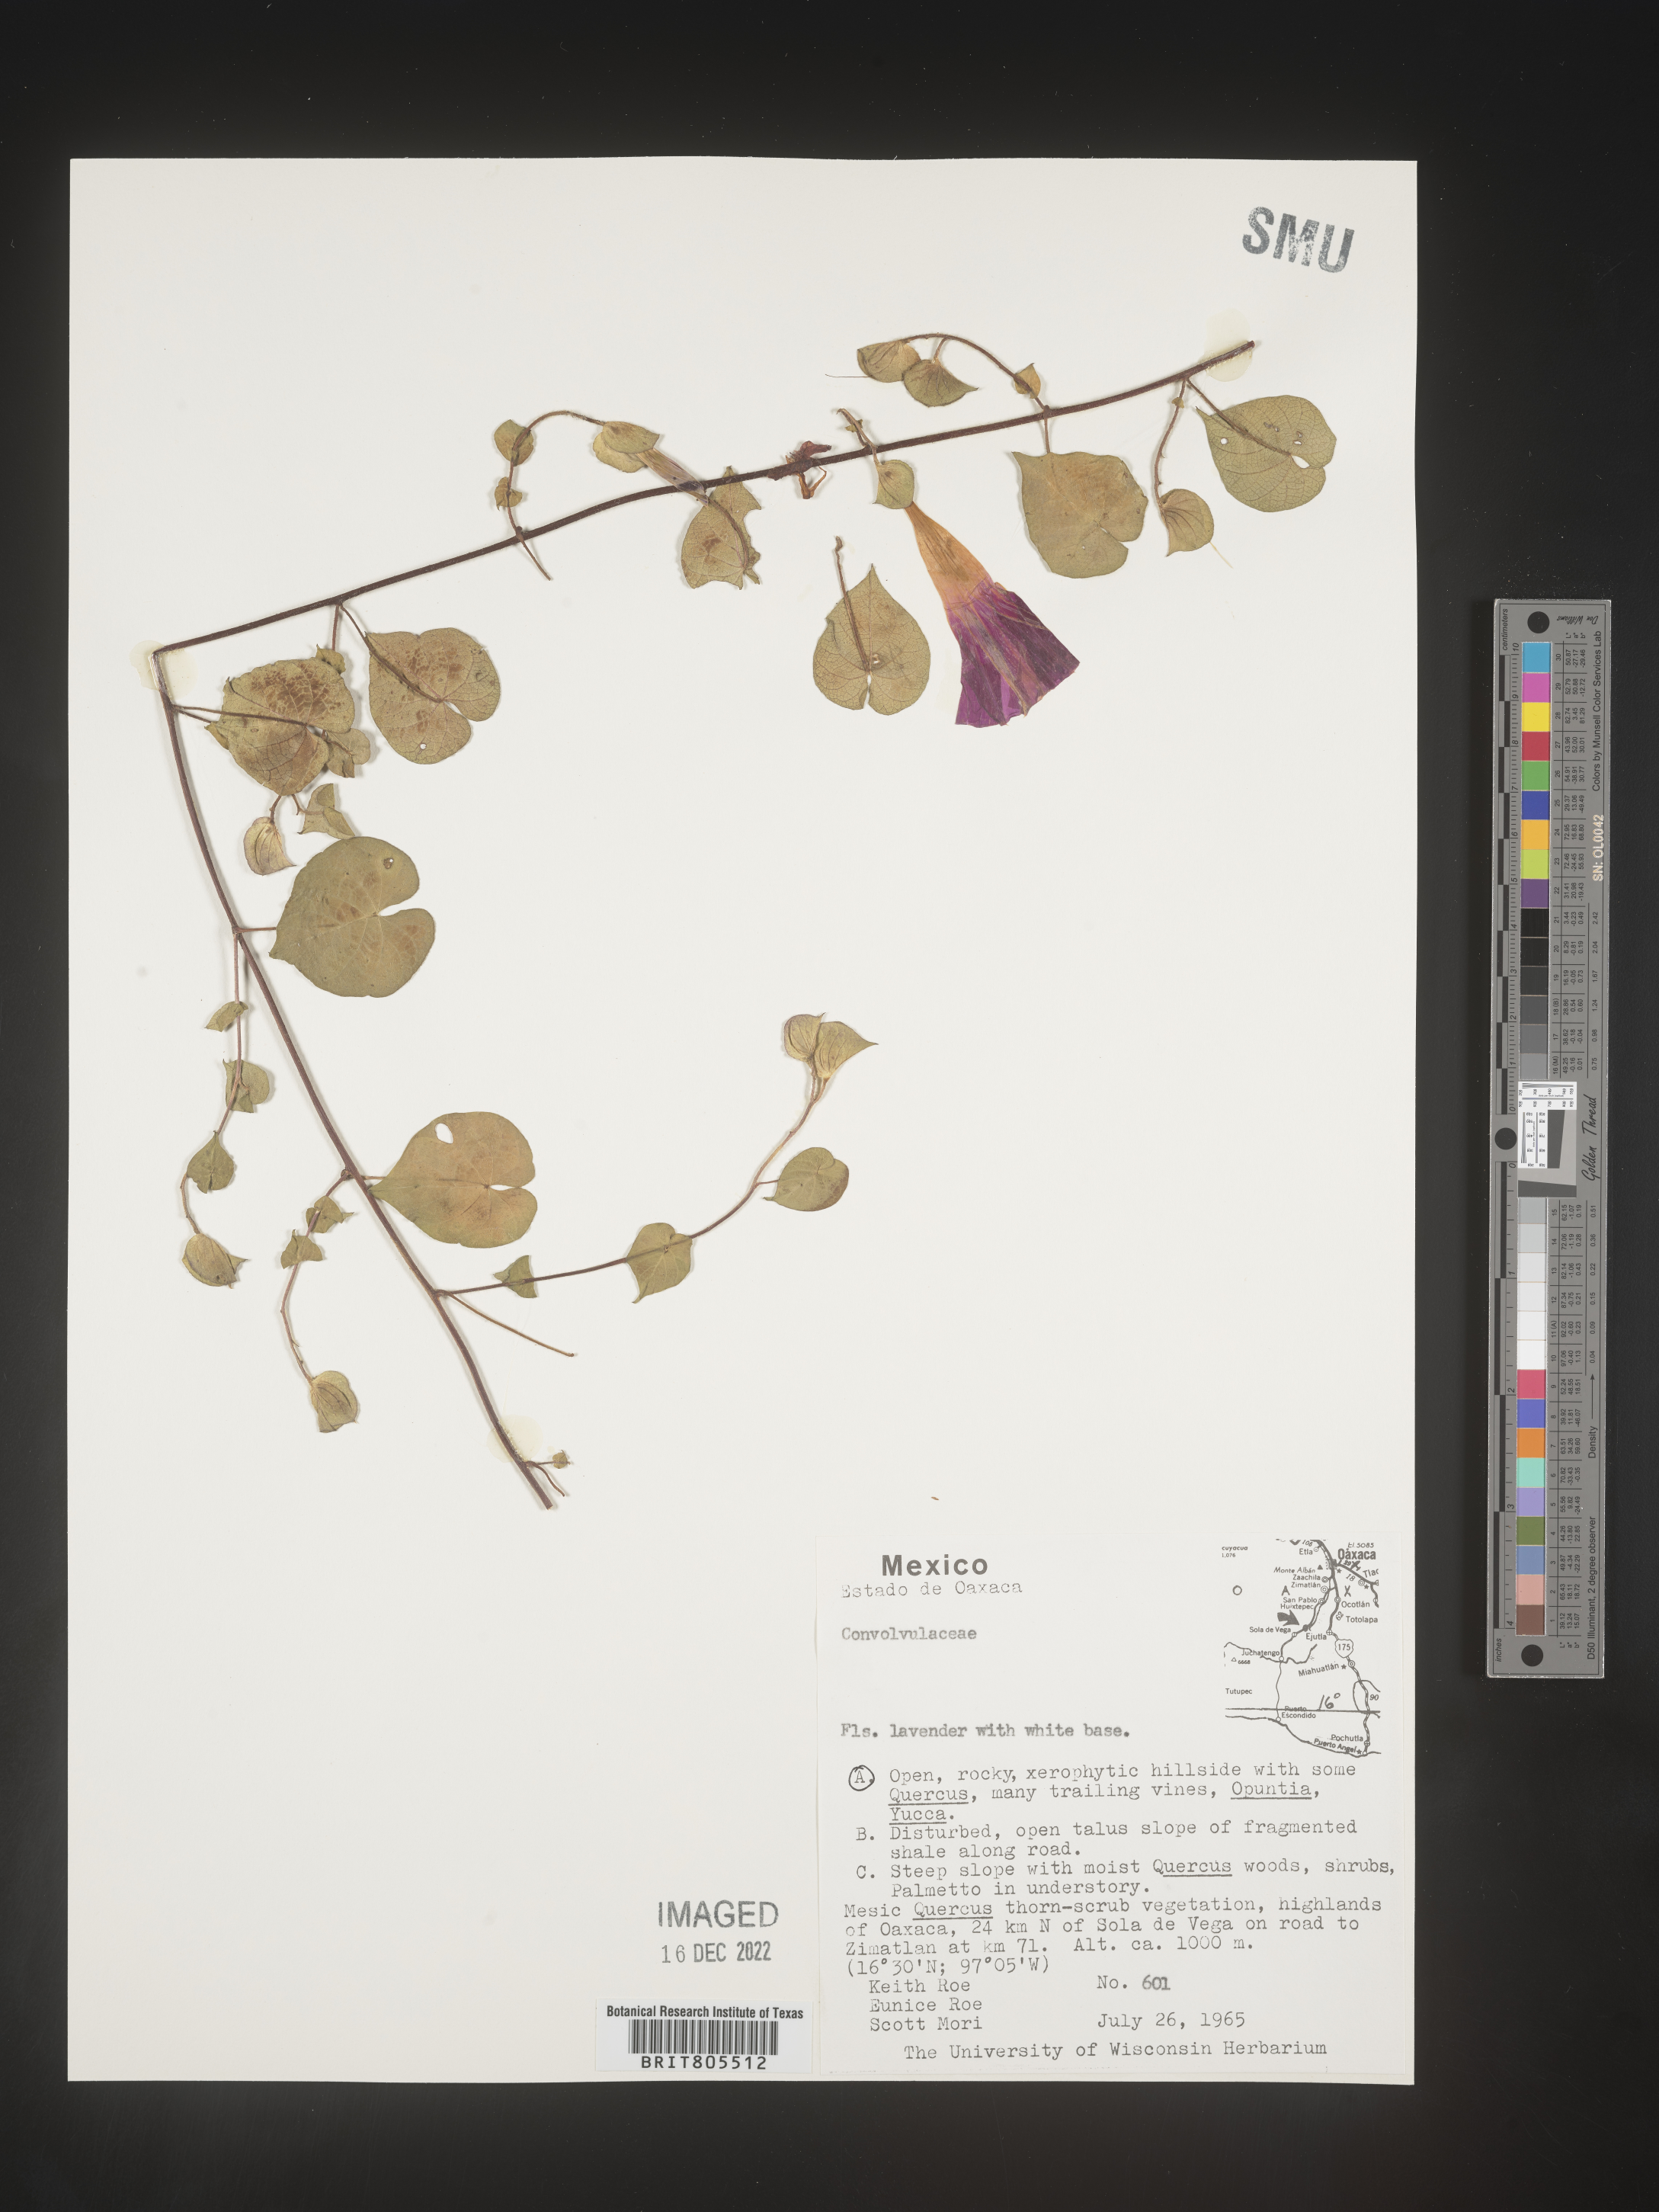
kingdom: Plantae
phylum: Tracheophyta
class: Magnoliopsida
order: Solanales
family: Convolvulaceae
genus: Ipomoea
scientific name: Ipomoea
